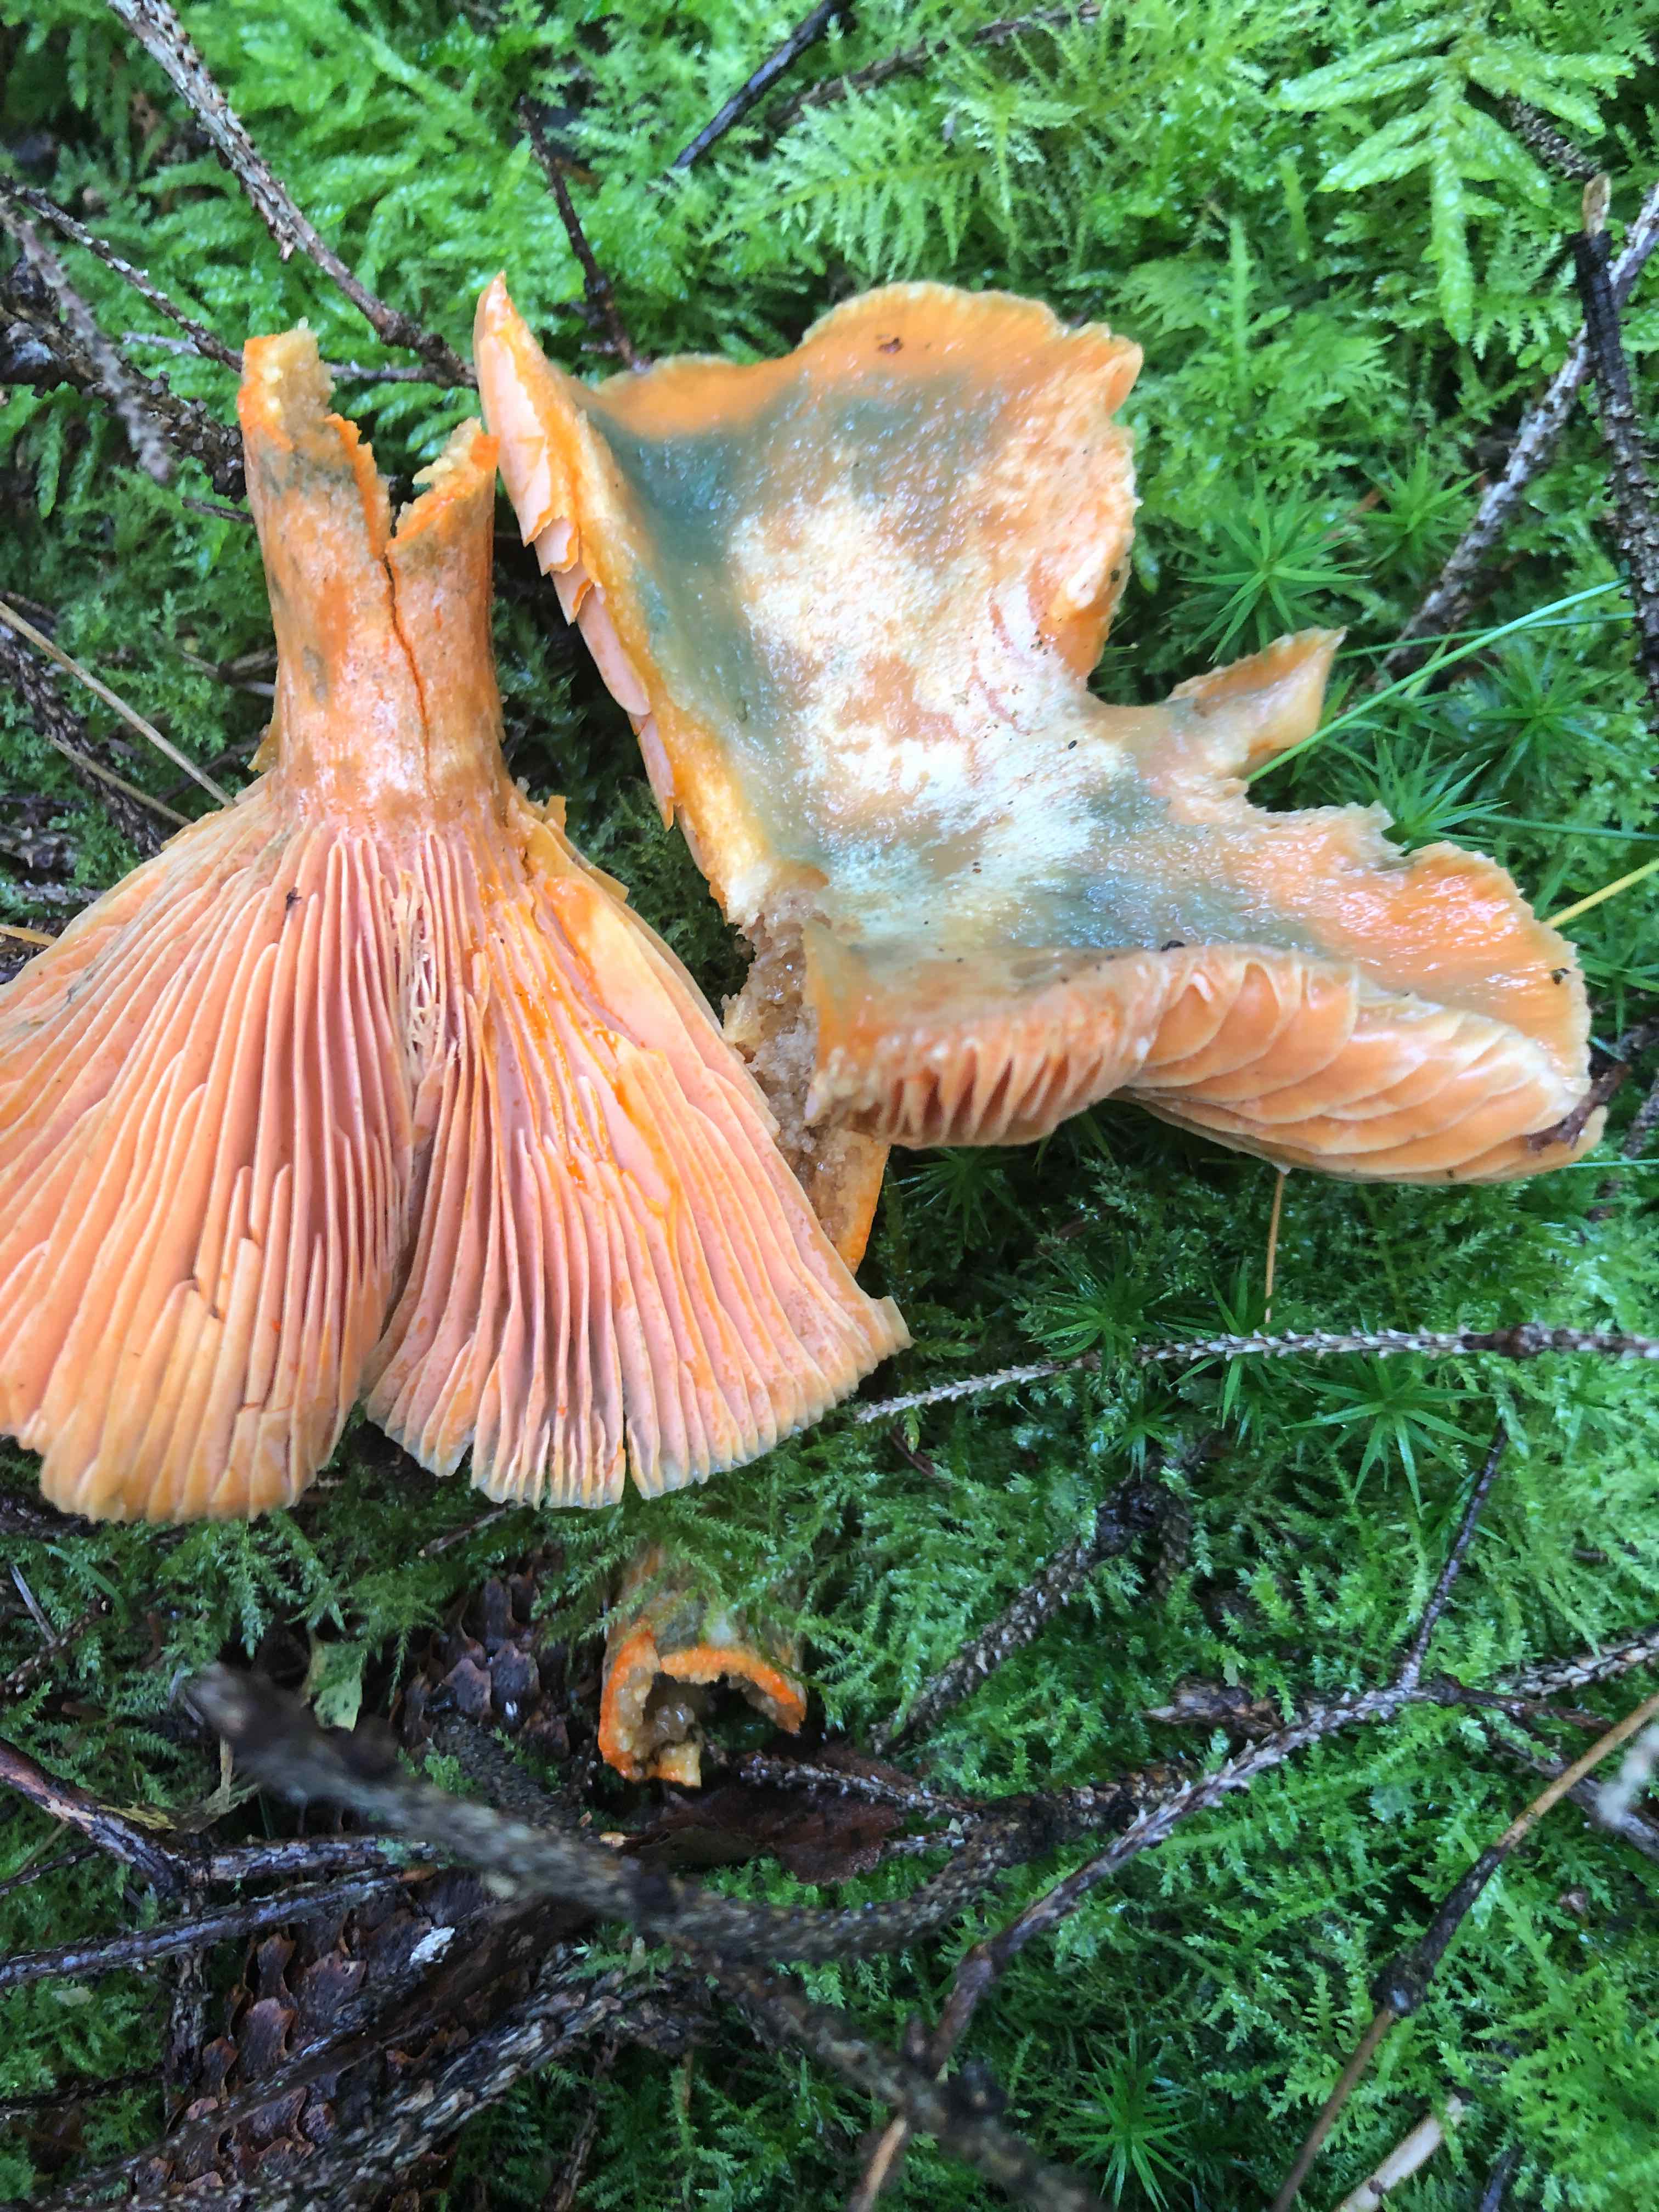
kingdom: Fungi
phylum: Basidiomycota
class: Agaricomycetes
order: Russulales
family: Russulaceae
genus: Lactarius
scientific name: Lactarius deterrimus
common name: gran-mælkehat
